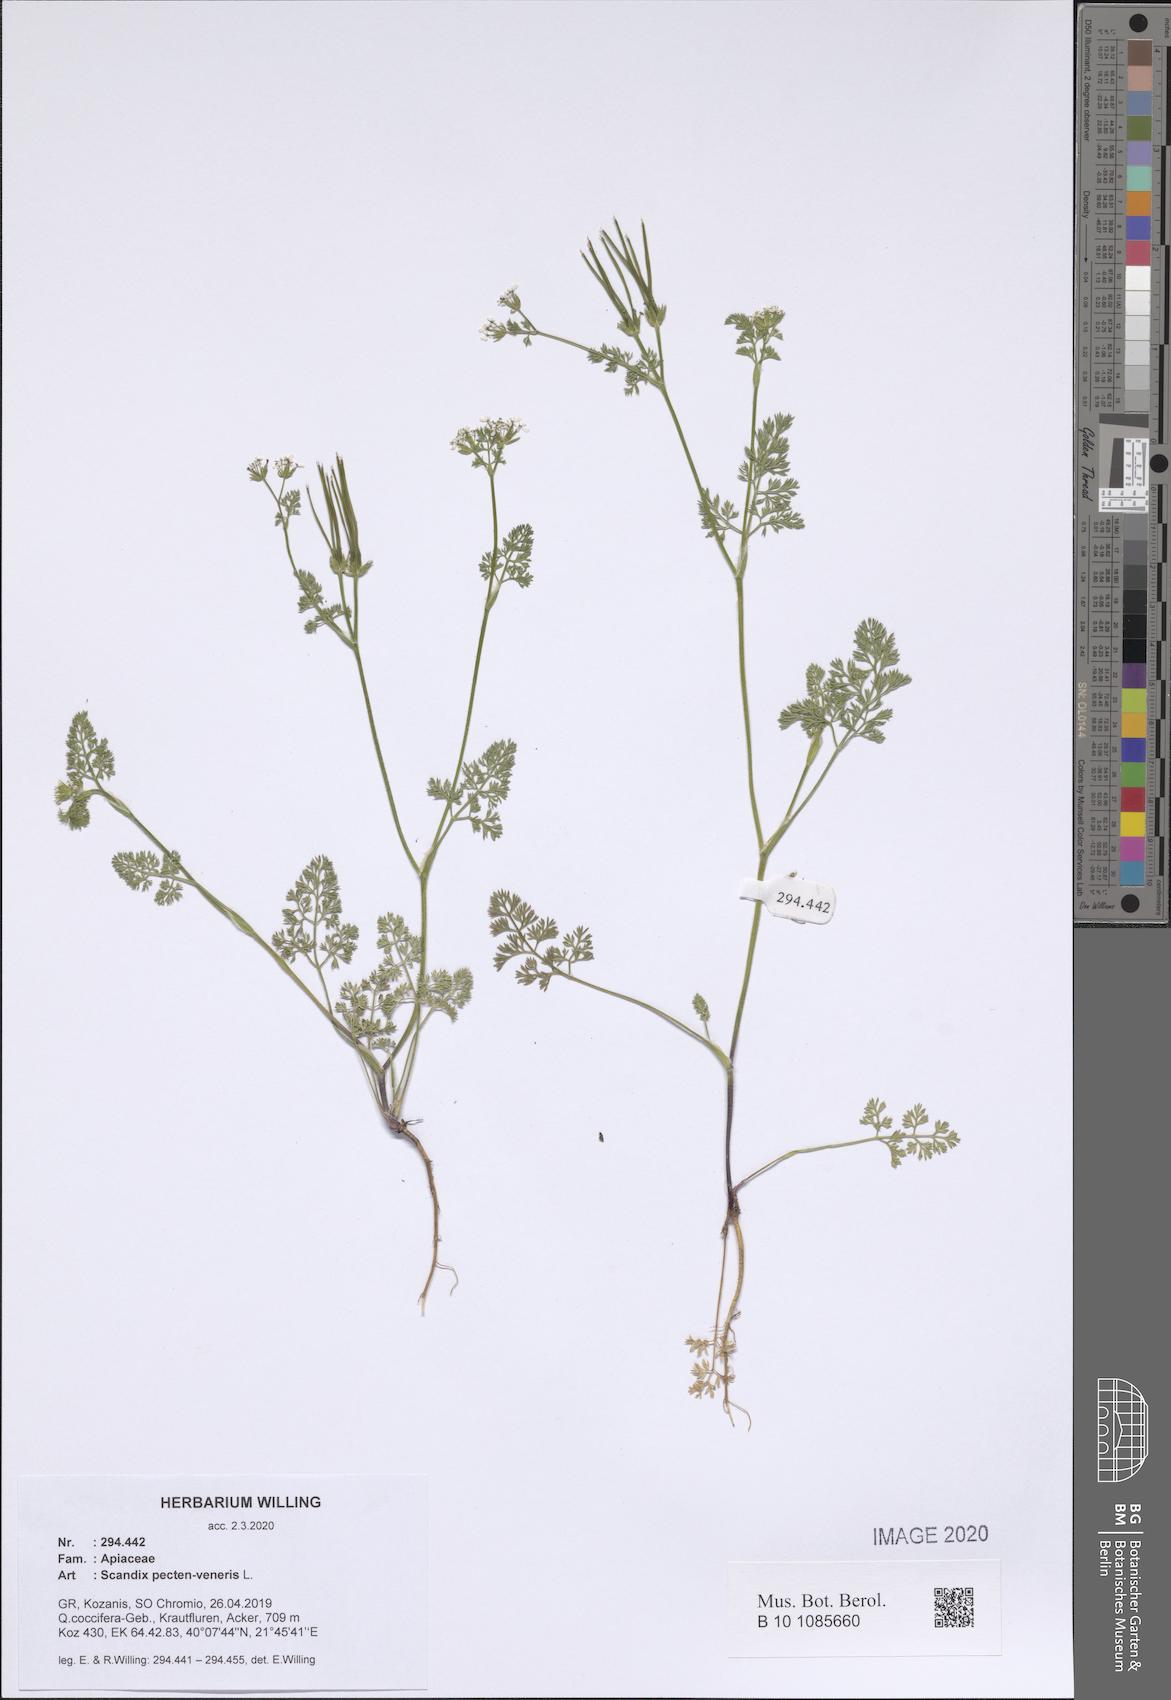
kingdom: Plantae
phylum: Tracheophyta
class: Magnoliopsida
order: Apiales
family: Apiaceae
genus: Scandix
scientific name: Scandix pecten-veneris
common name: Shepherd's-needle
